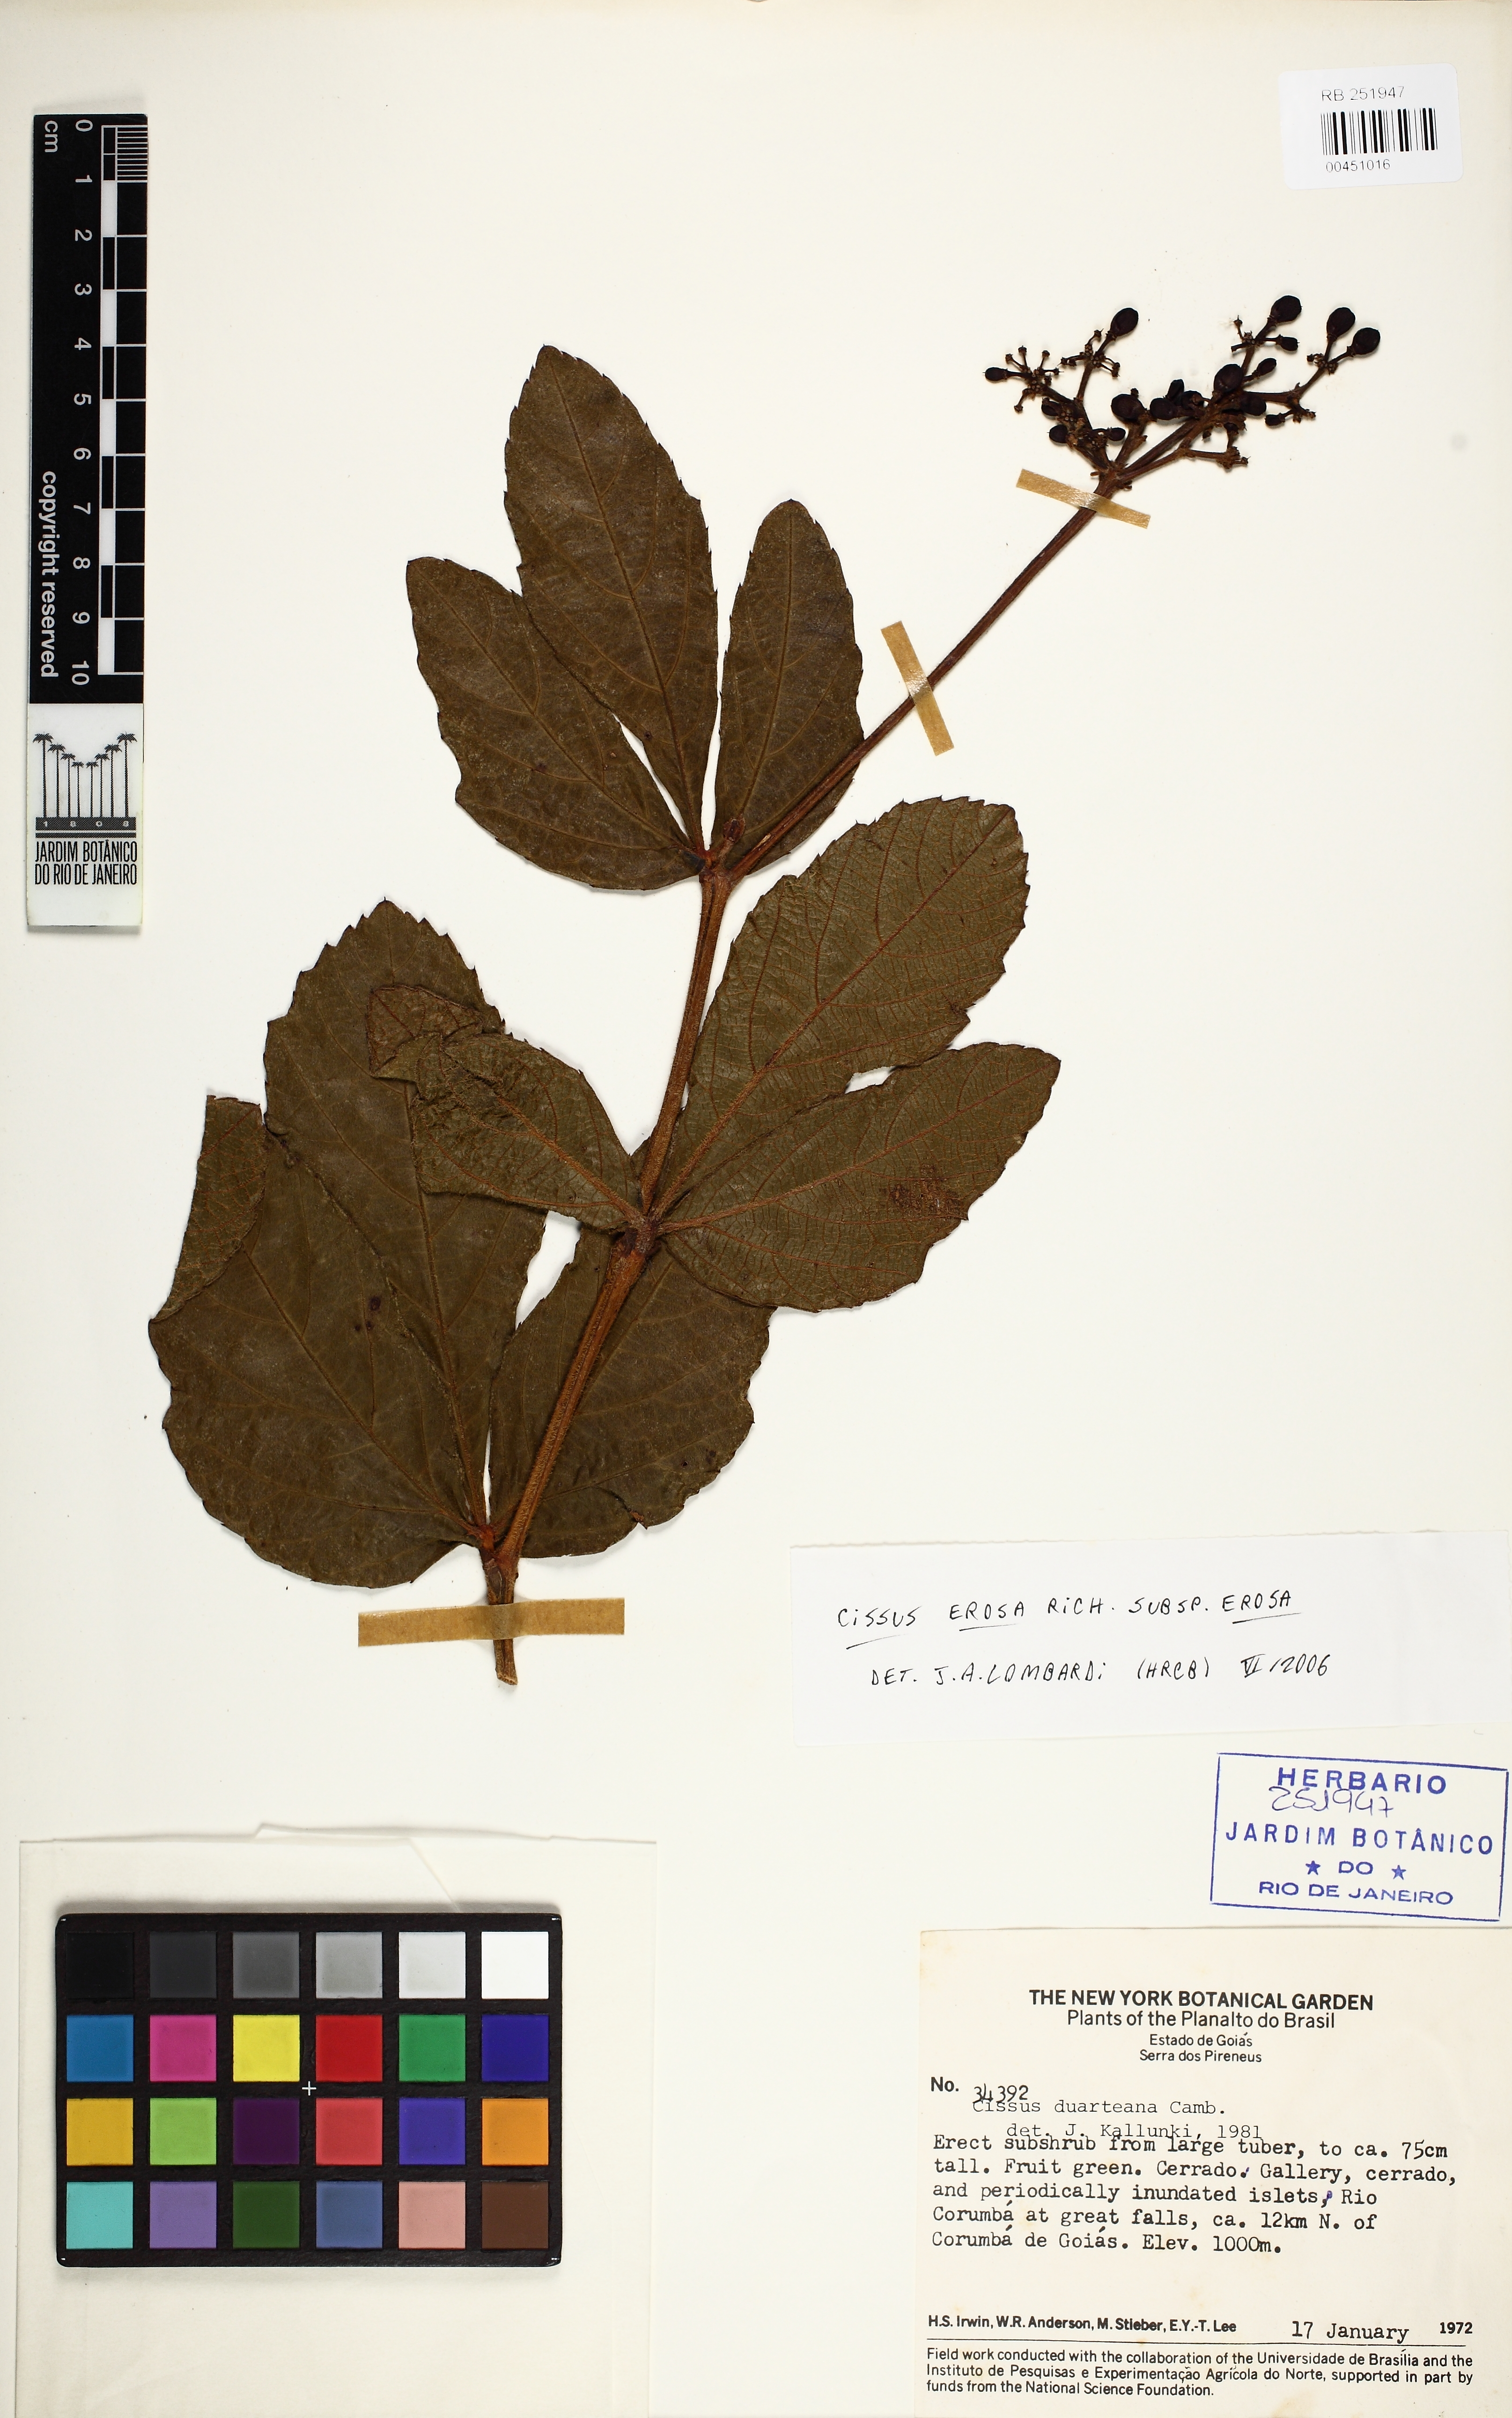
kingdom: Plantae
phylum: Tracheophyta
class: Magnoliopsida
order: Vitales
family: Vitaceae
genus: Cissus
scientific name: Cissus erosa
